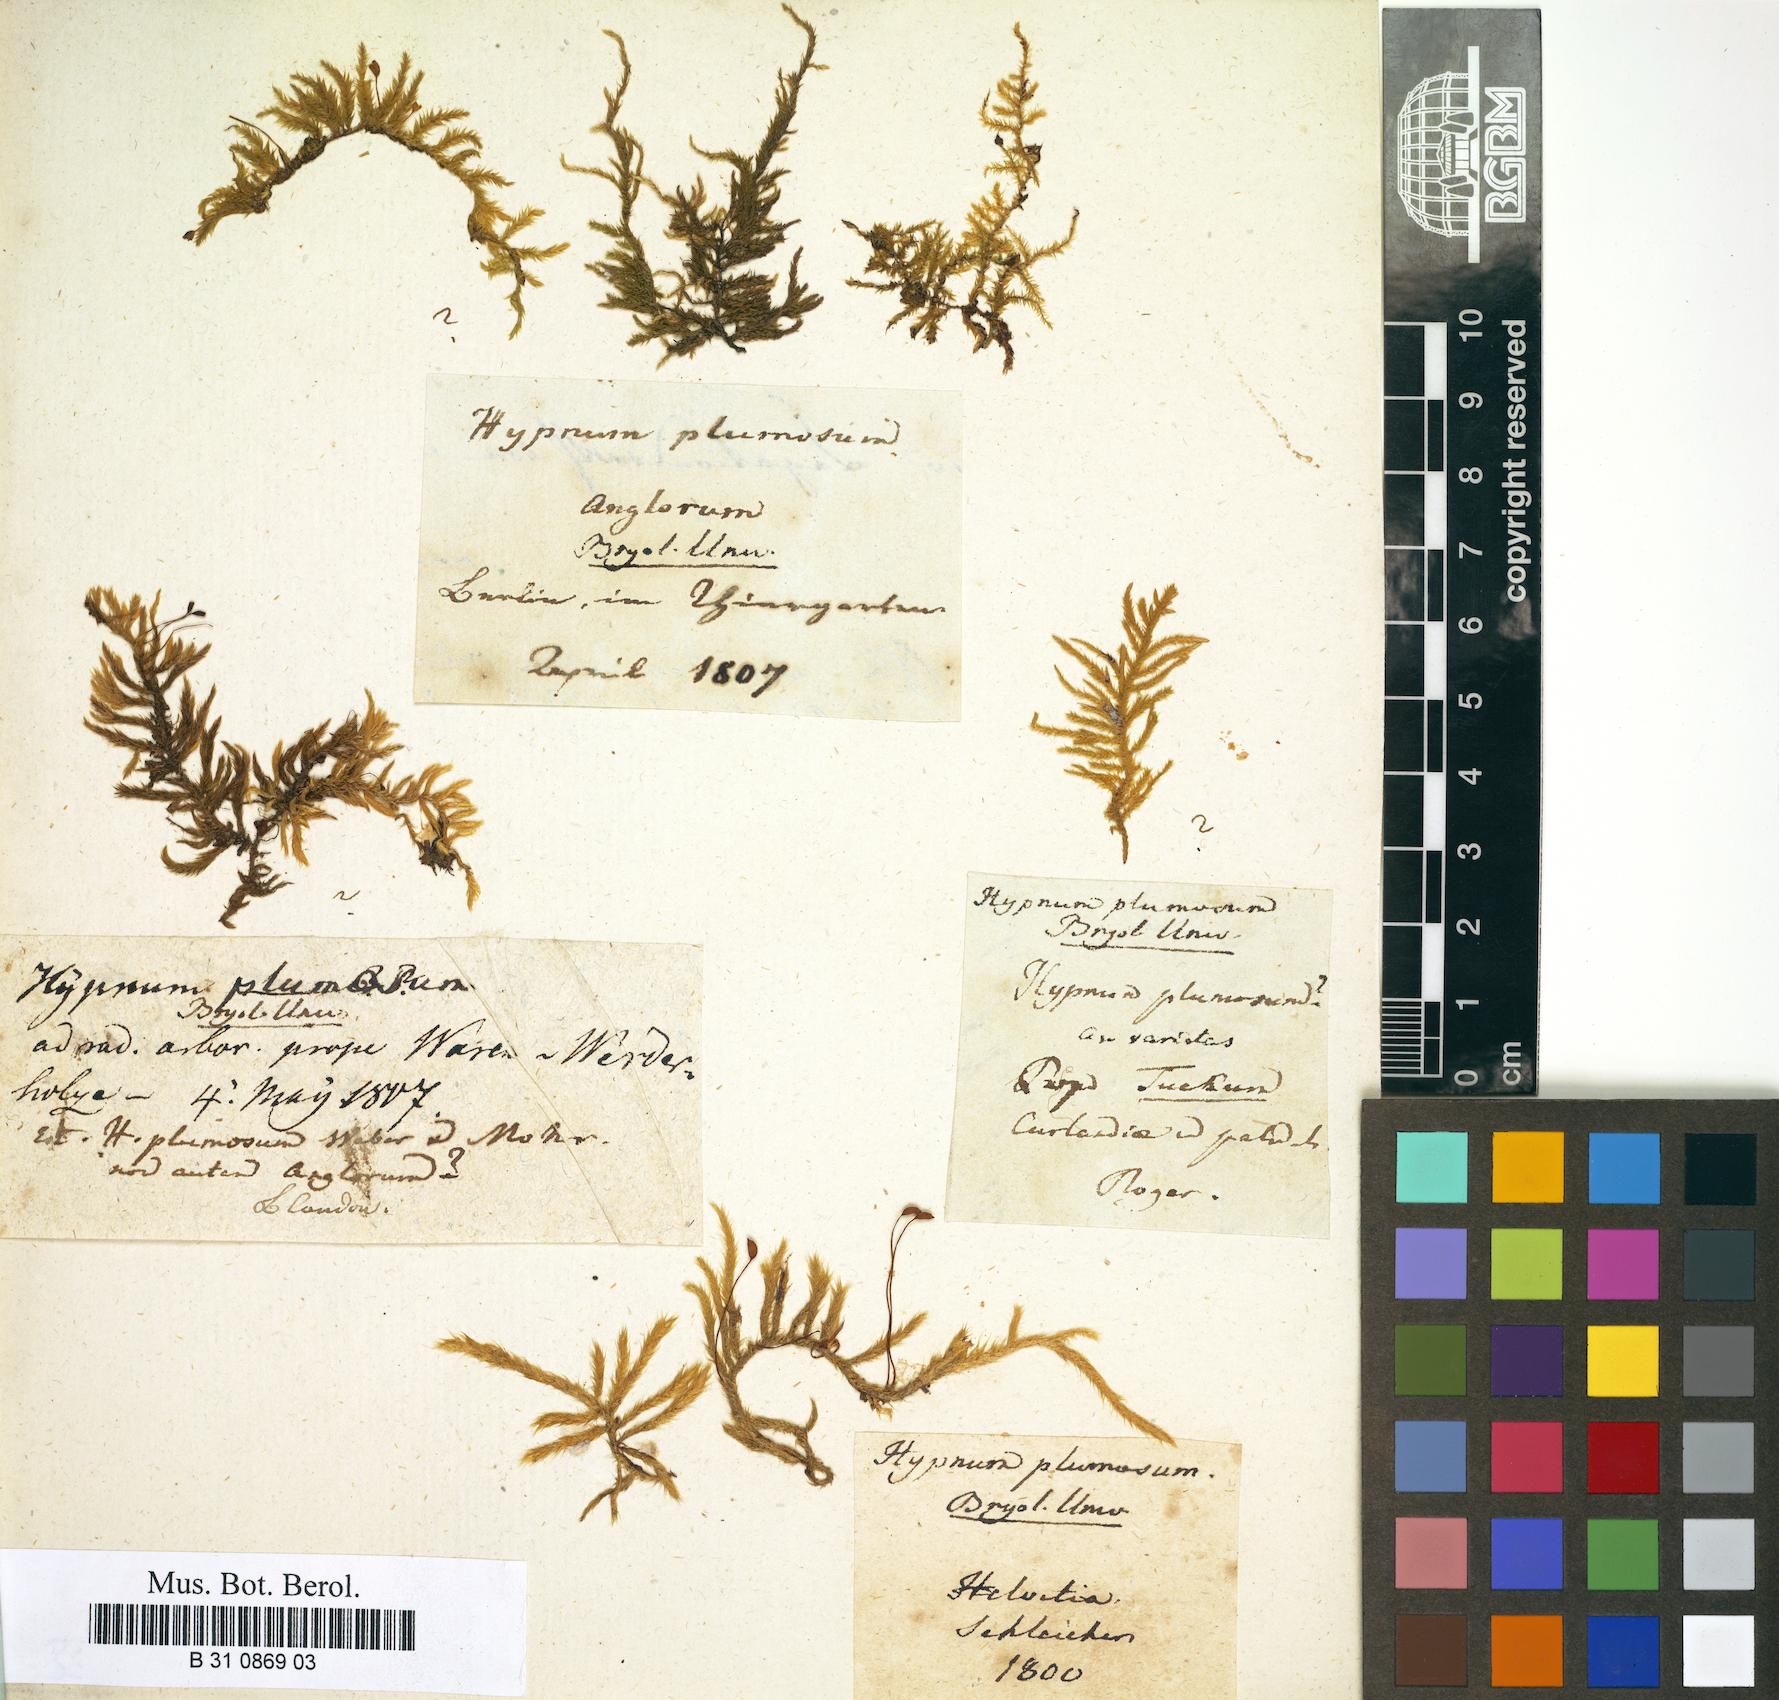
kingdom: Plantae
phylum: Bryophyta
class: Bryopsida
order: Hypnales
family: Brachytheciaceae
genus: Sciuro-hypnum
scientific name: Sciuro-hypnum plumosum
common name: Rusty feather-moss
